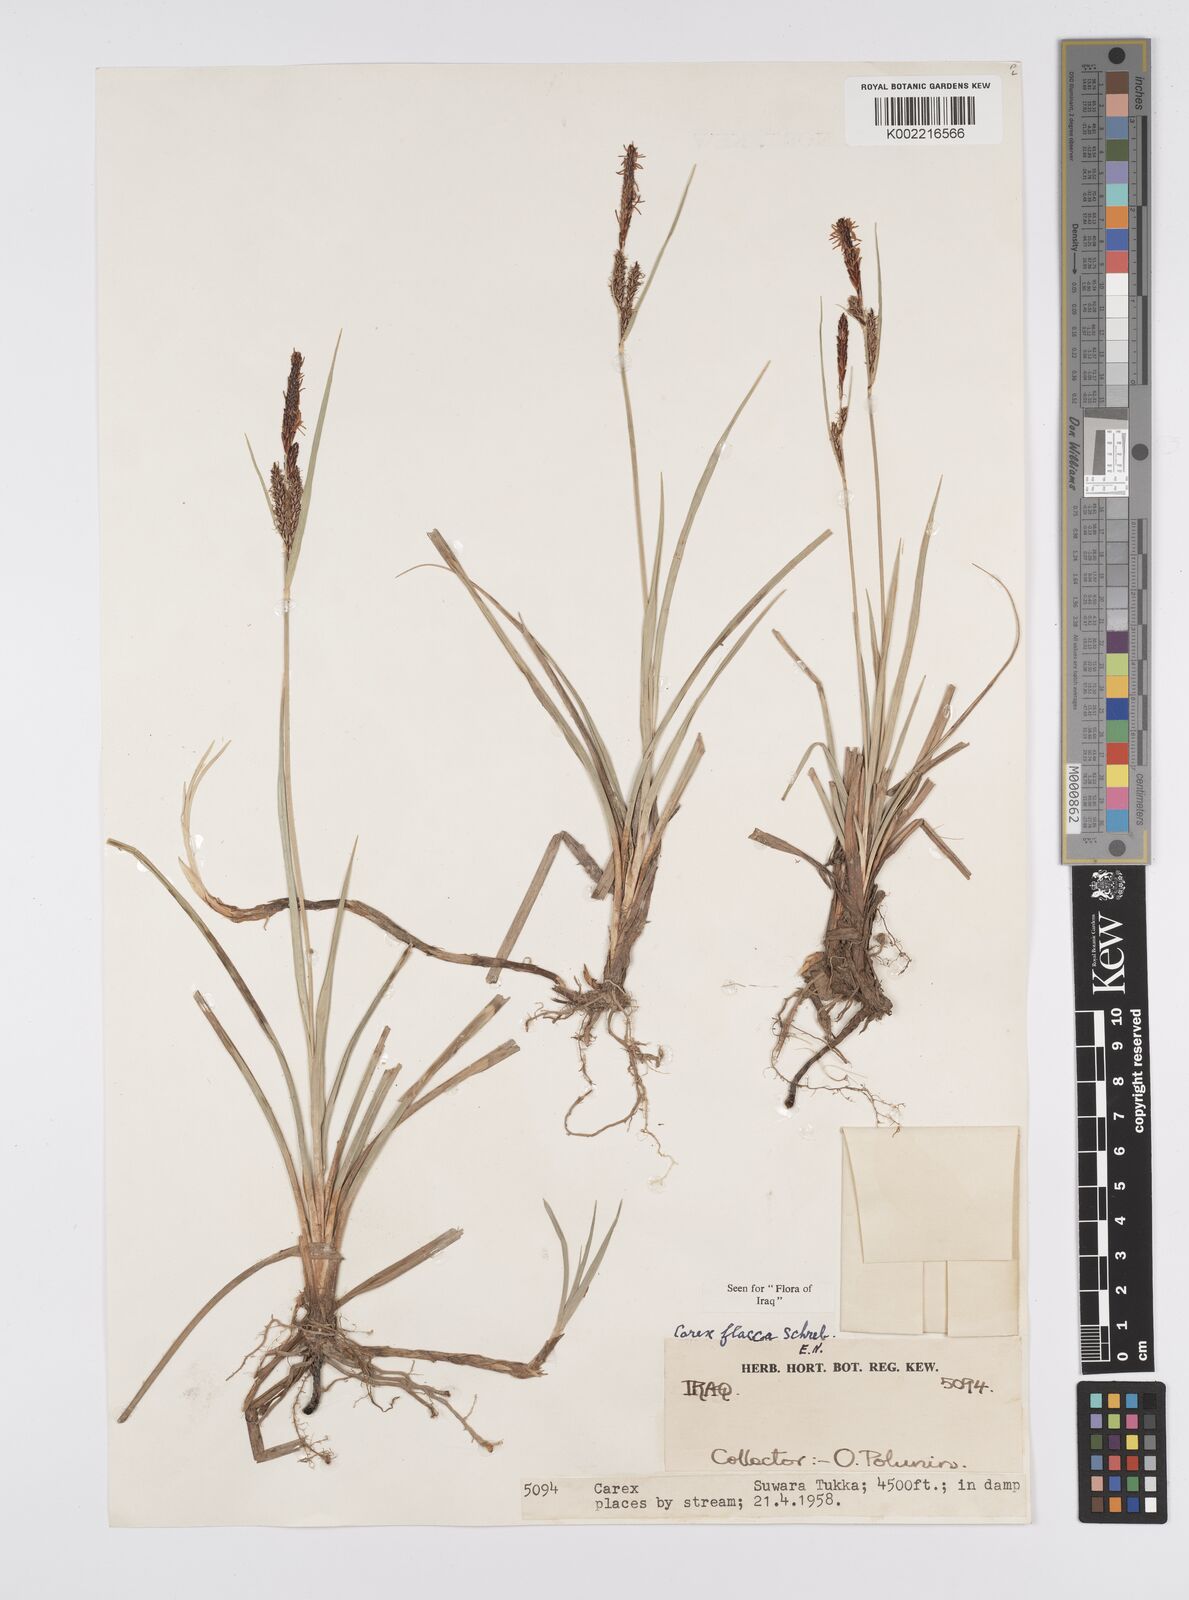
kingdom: Plantae
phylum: Tracheophyta
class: Liliopsida
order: Poales
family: Cyperaceae
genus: Carex
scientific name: Carex flacca
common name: Glaucous sedge
